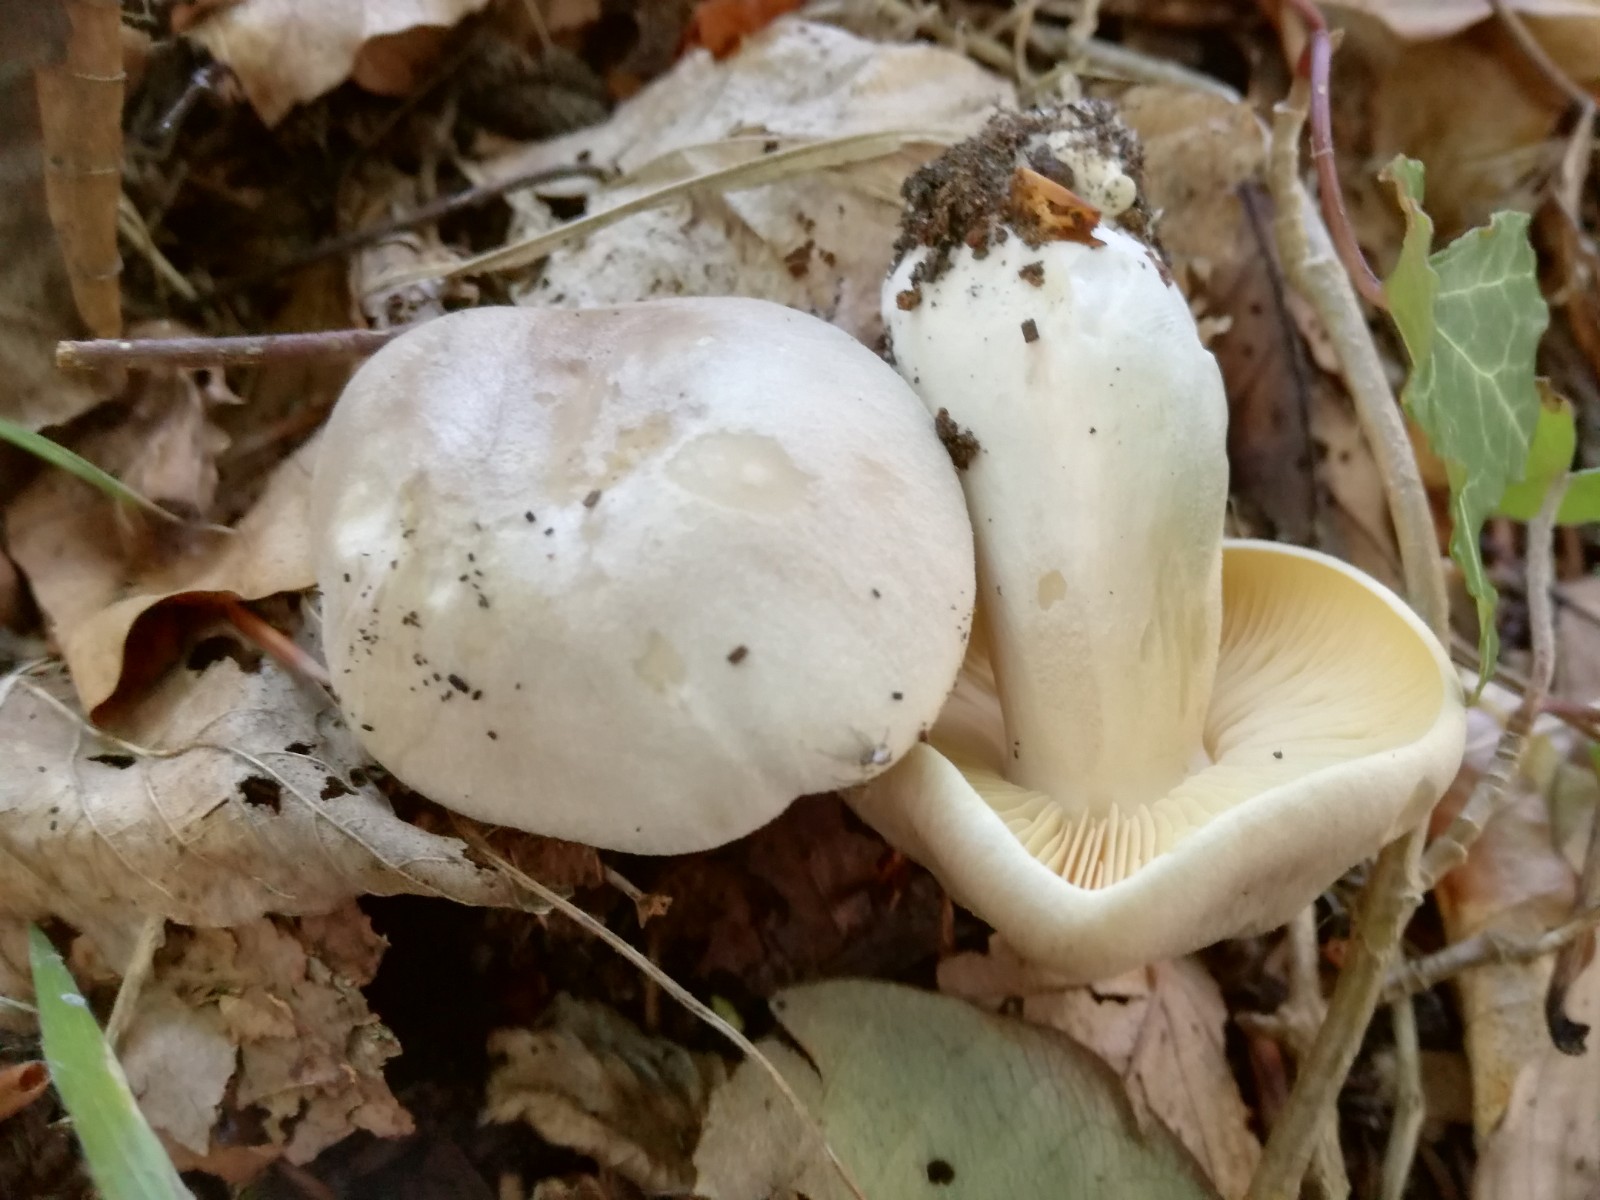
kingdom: Fungi
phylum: Basidiomycota
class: Agaricomycetes
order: Agaricales
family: Entolomataceae
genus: Entoloma
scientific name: Entoloma sinuatum
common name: giftig rødblad
